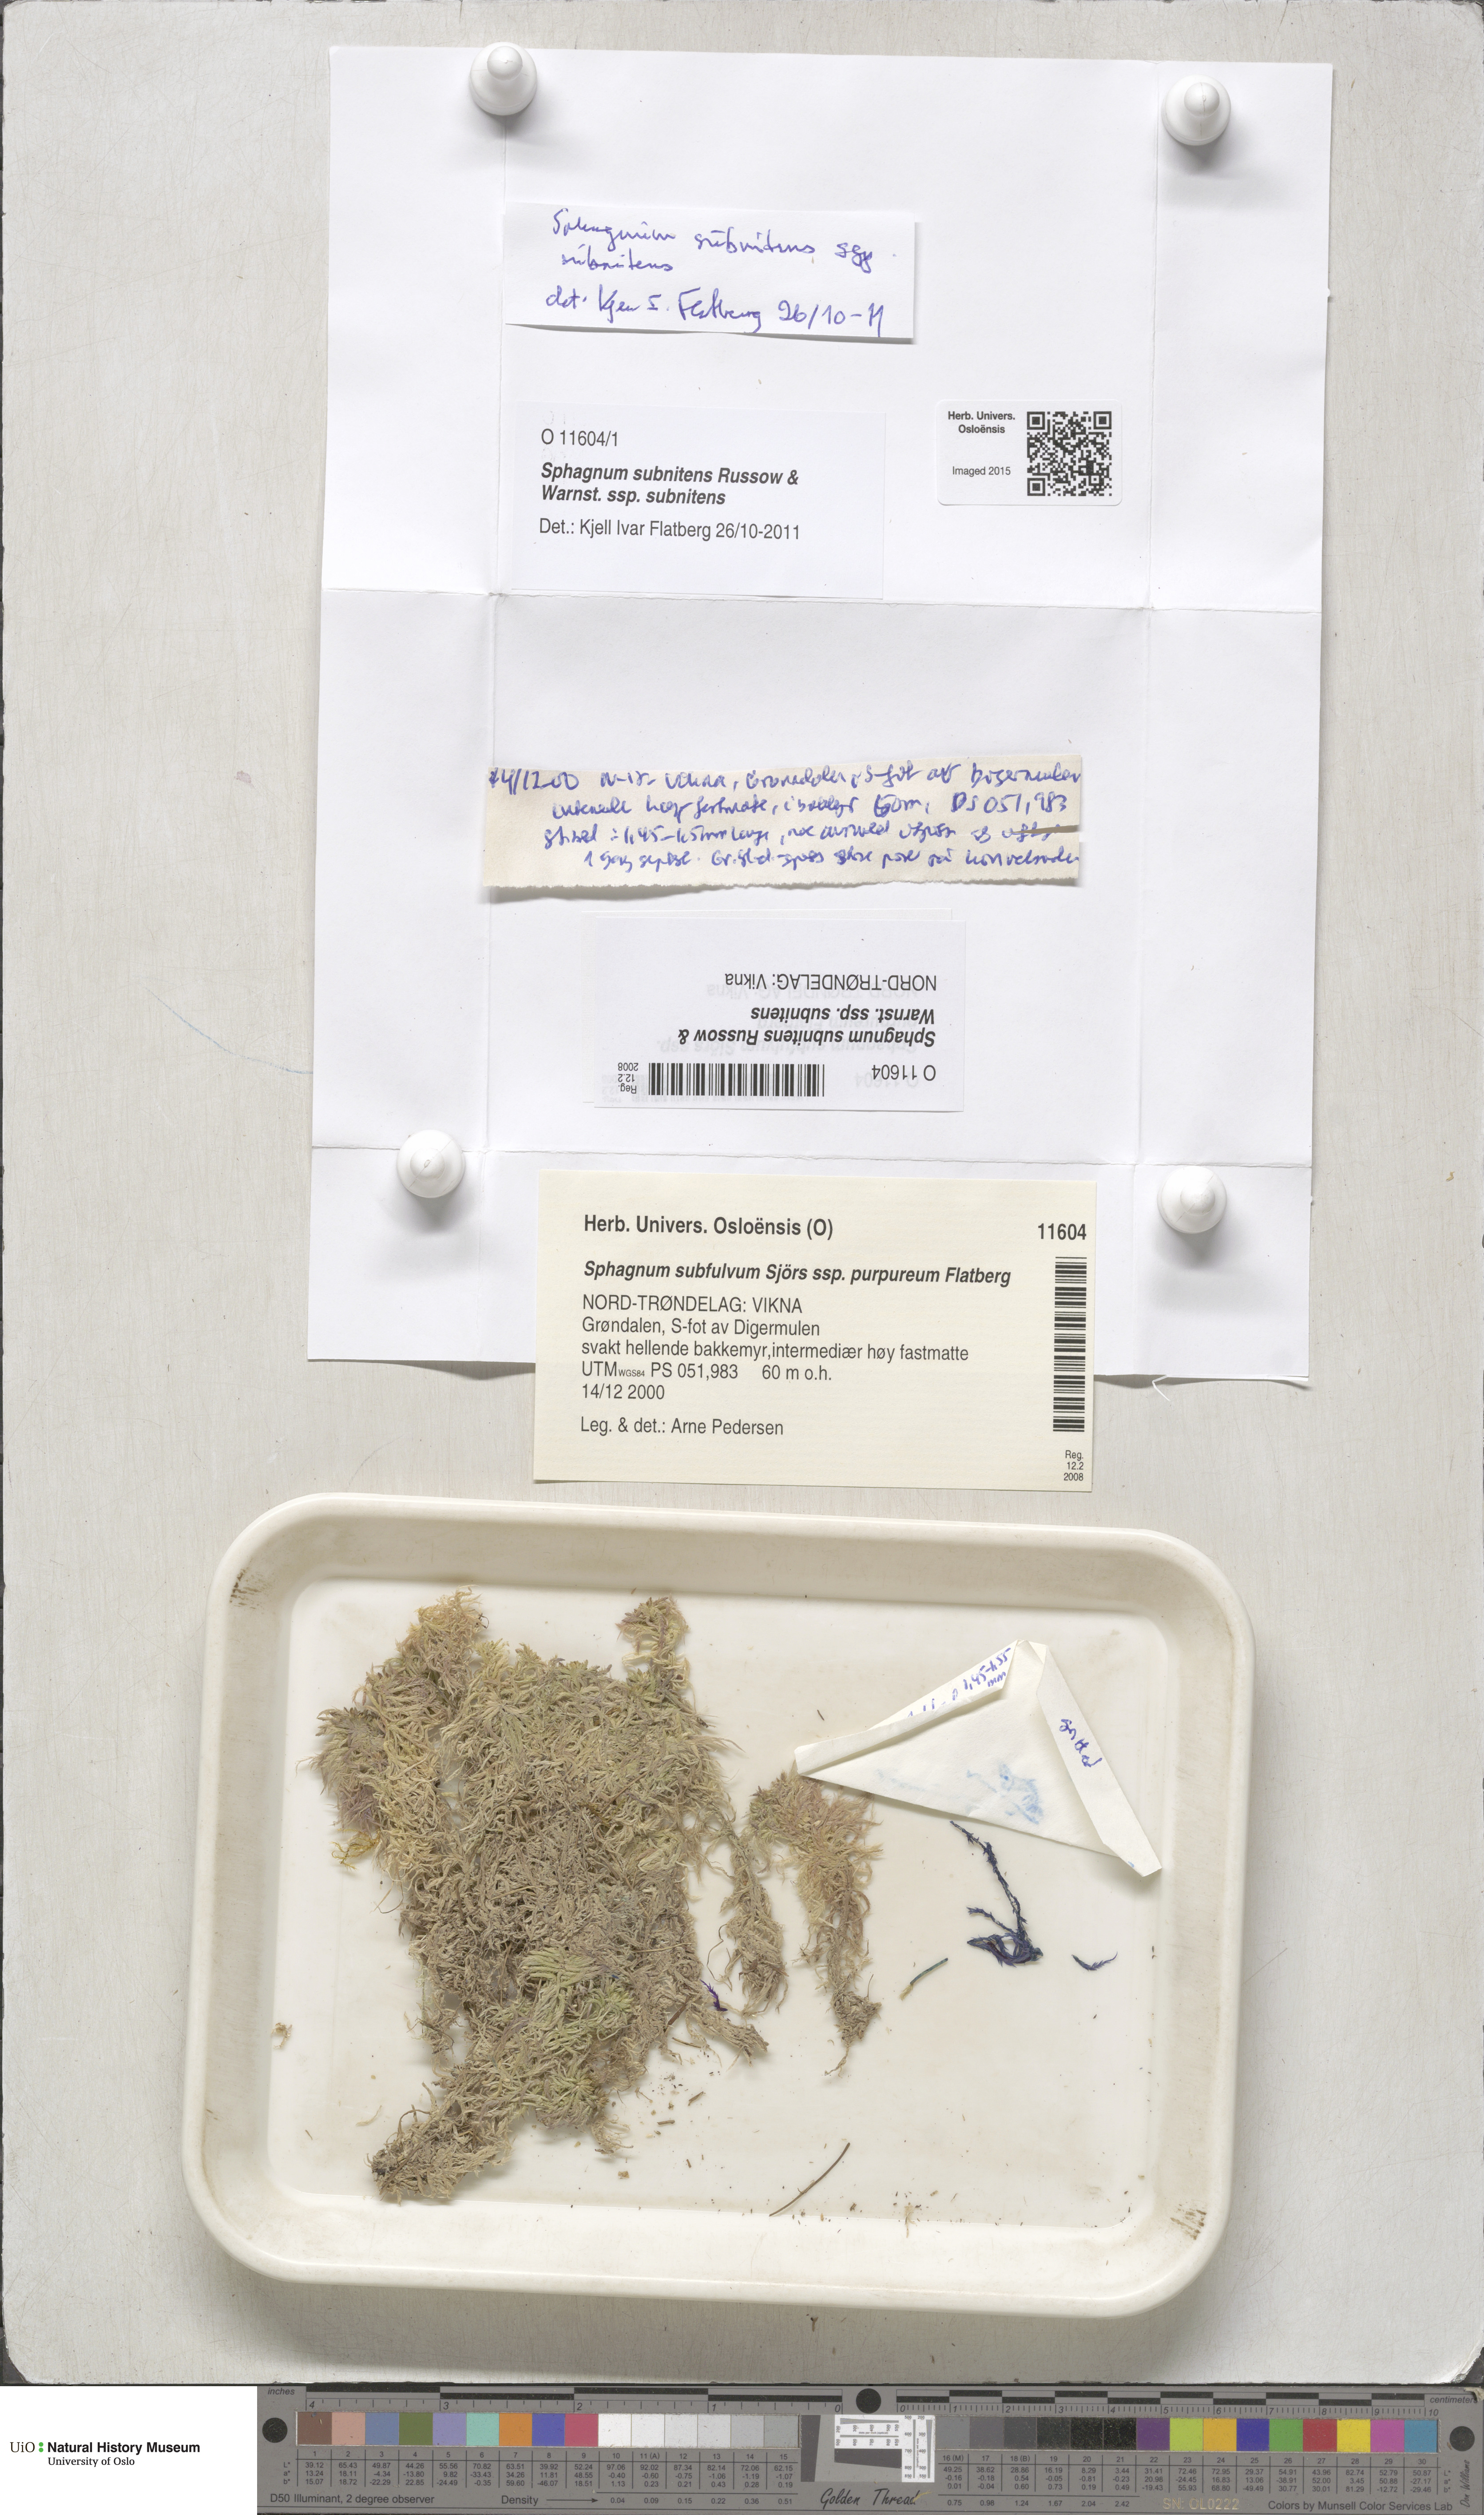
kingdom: Plantae
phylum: Bryophyta
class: Sphagnopsida
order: Sphagnales
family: Sphagnaceae
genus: Sphagnum
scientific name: Sphagnum subnitens
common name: Lustrous bog-moss
